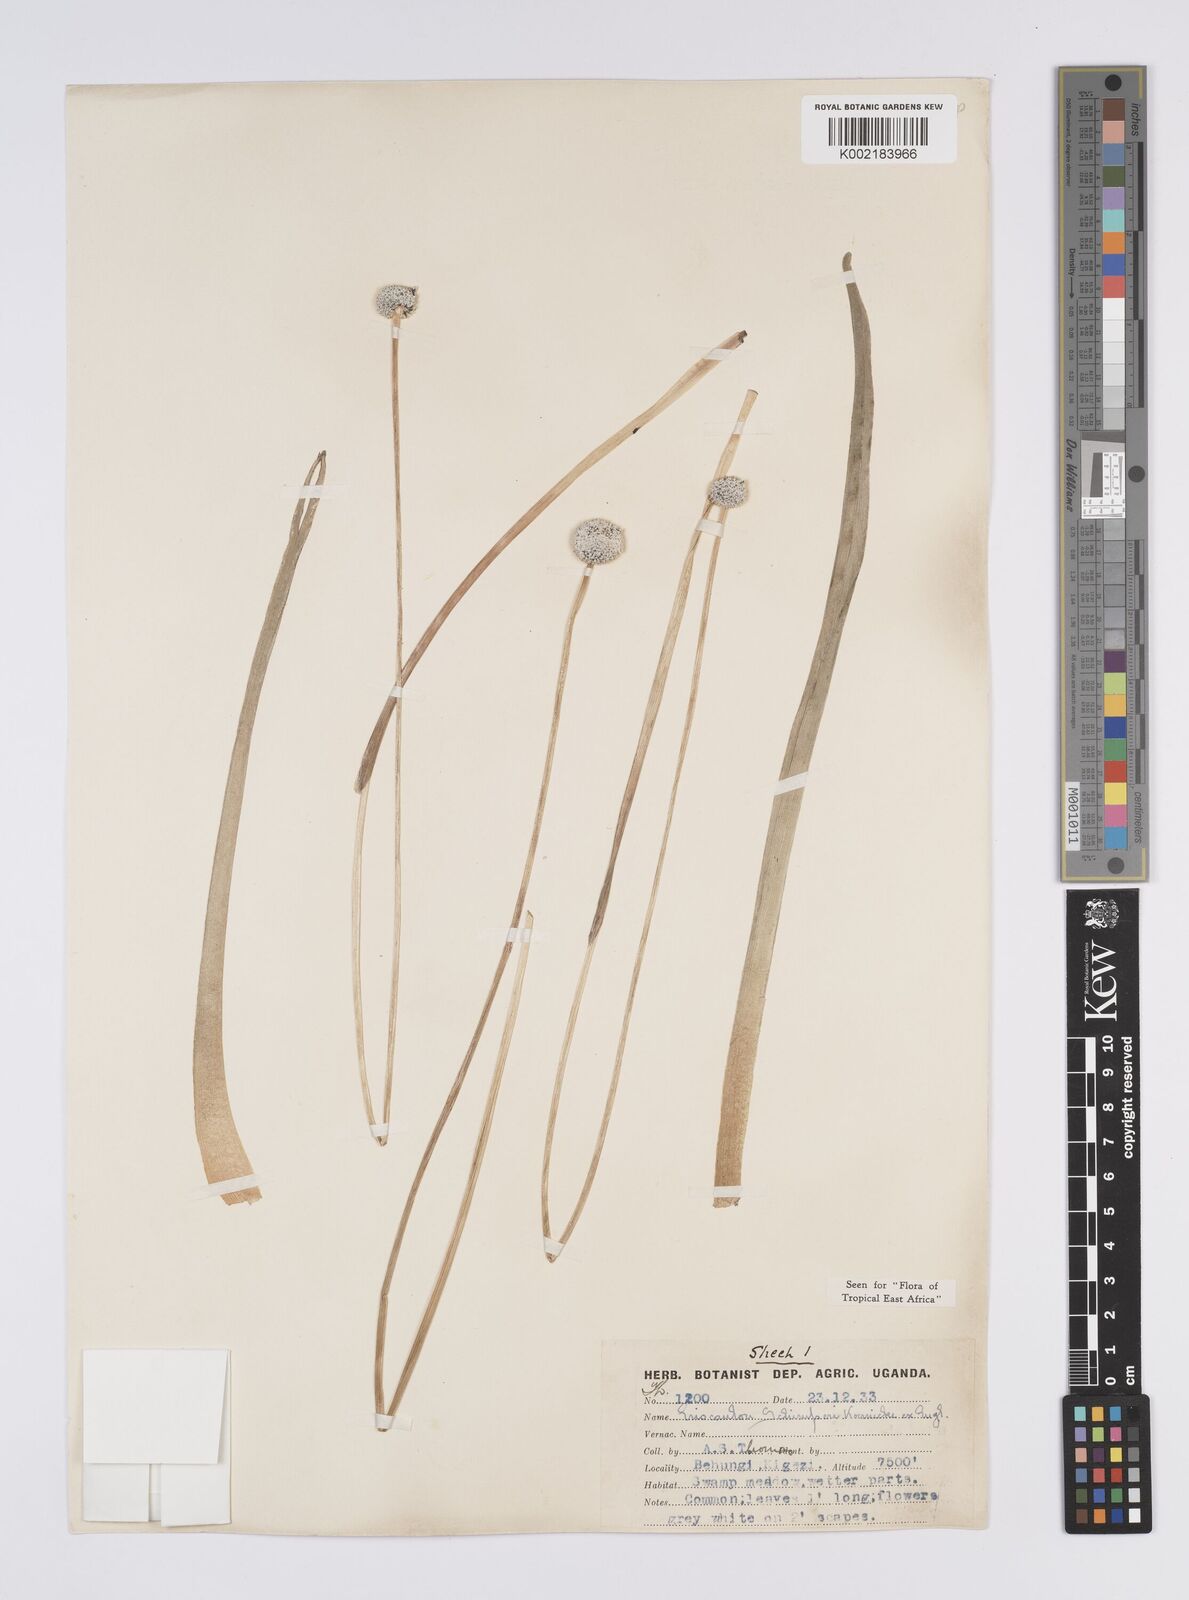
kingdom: Plantae
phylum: Tracheophyta
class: Liliopsida
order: Poales
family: Eriocaulaceae
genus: Eriocaulon
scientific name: Eriocaulon schimperi
